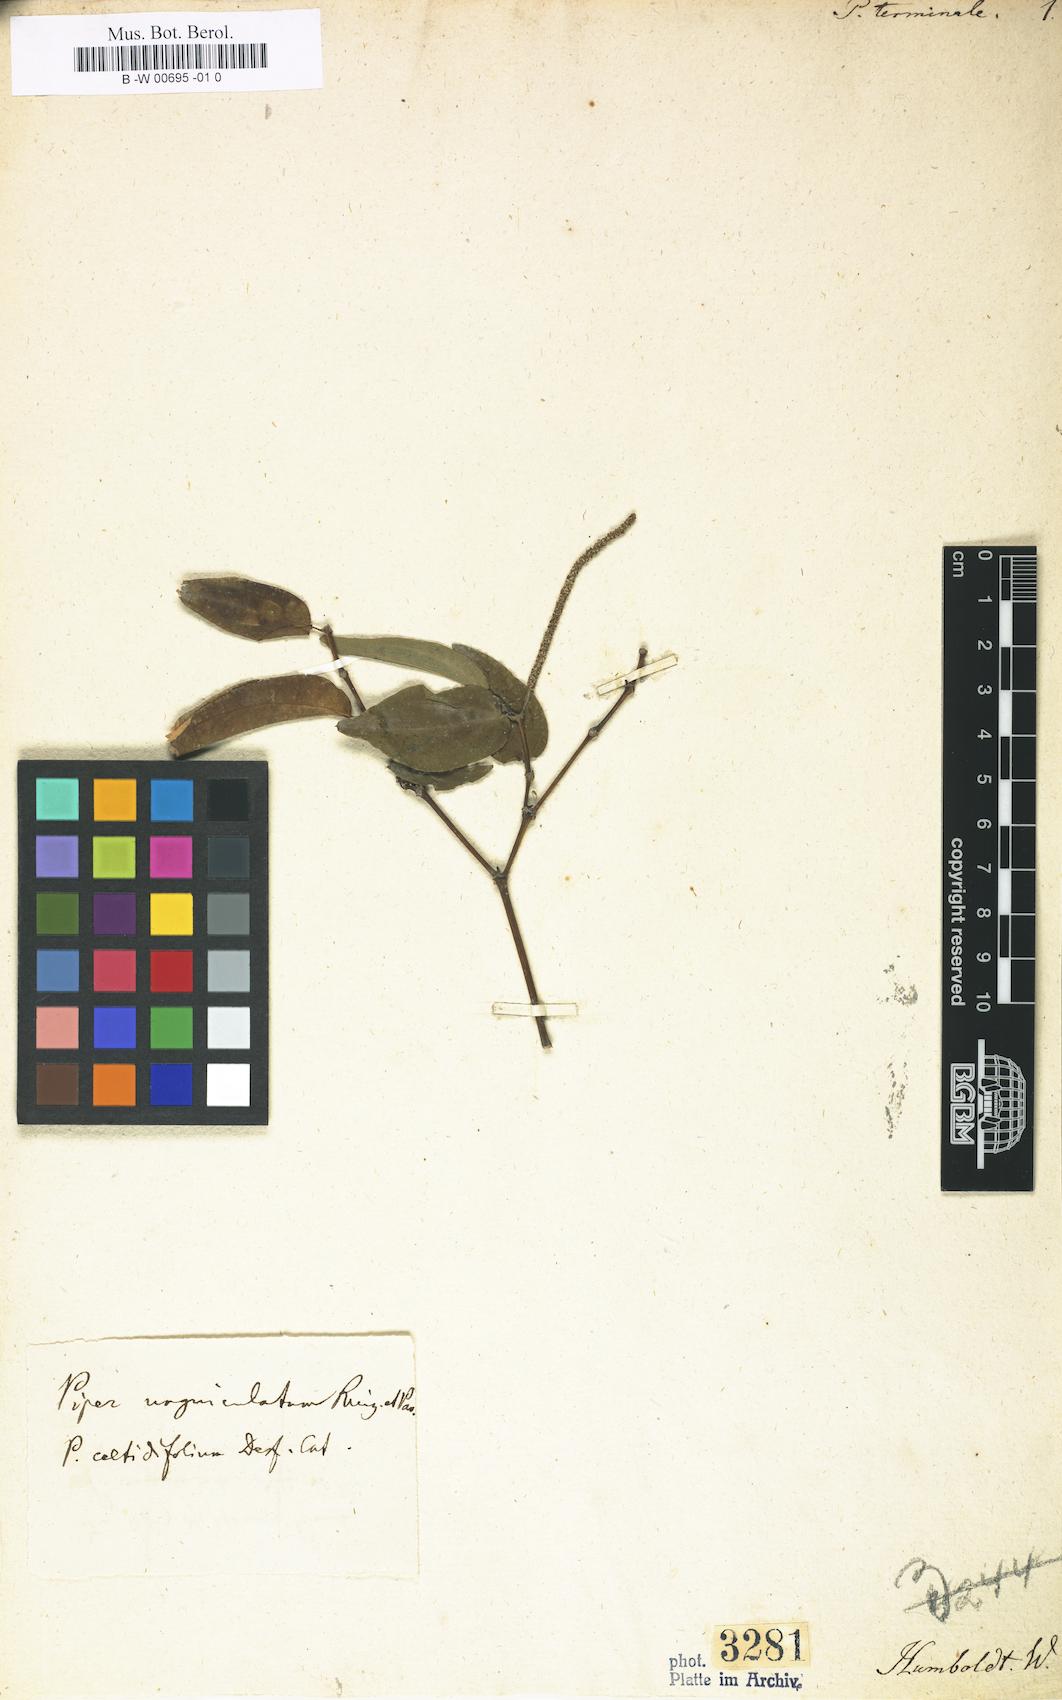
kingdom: Plantae
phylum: Tracheophyta
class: Magnoliopsida
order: Piperales
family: Piperaceae
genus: Piper
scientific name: Piper unguiculatum
